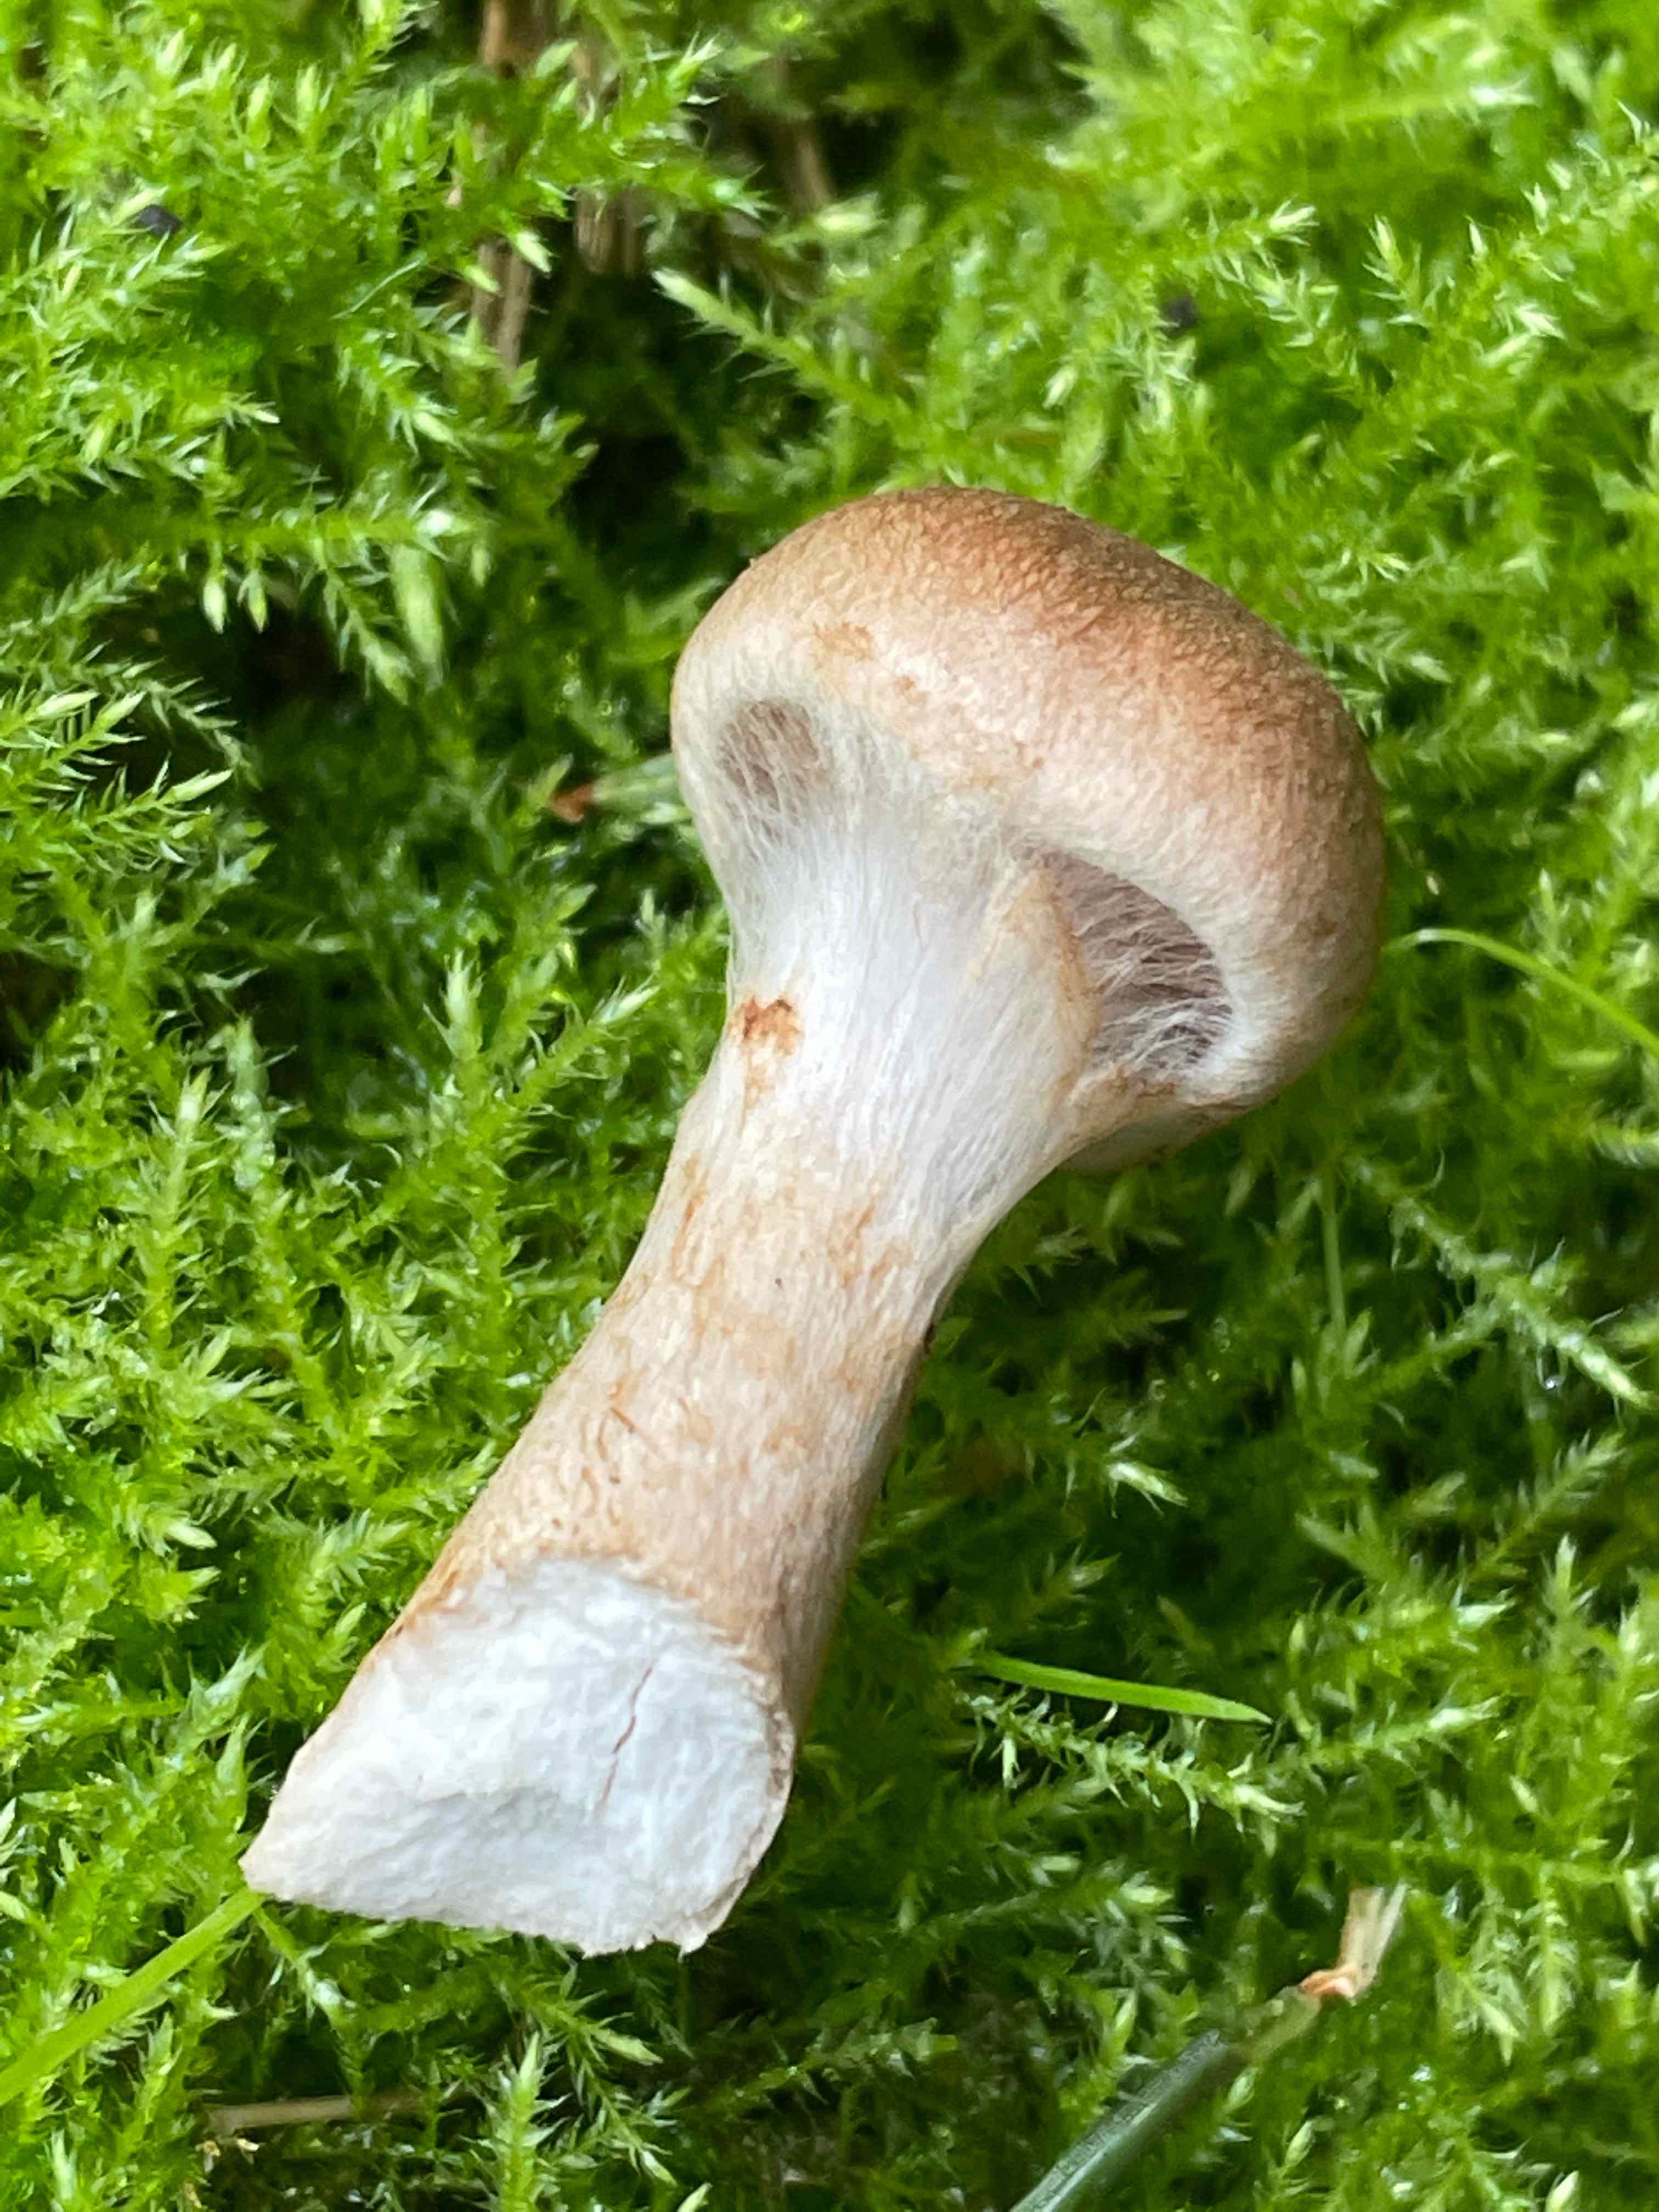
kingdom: Fungi
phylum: Basidiomycota
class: Agaricomycetes
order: Agaricales
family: Cortinariaceae
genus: Cortinarius
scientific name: Cortinarius caninus
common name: gran-slørhat
